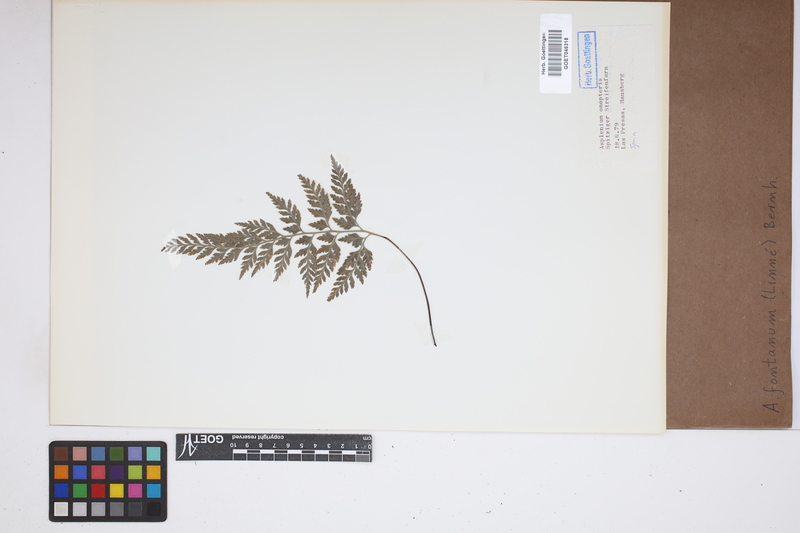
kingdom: Plantae
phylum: Tracheophyta
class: Polypodiopsida
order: Polypodiales
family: Aspleniaceae
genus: Asplenium
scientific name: Asplenium fontanum
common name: Fountain spleenwort
